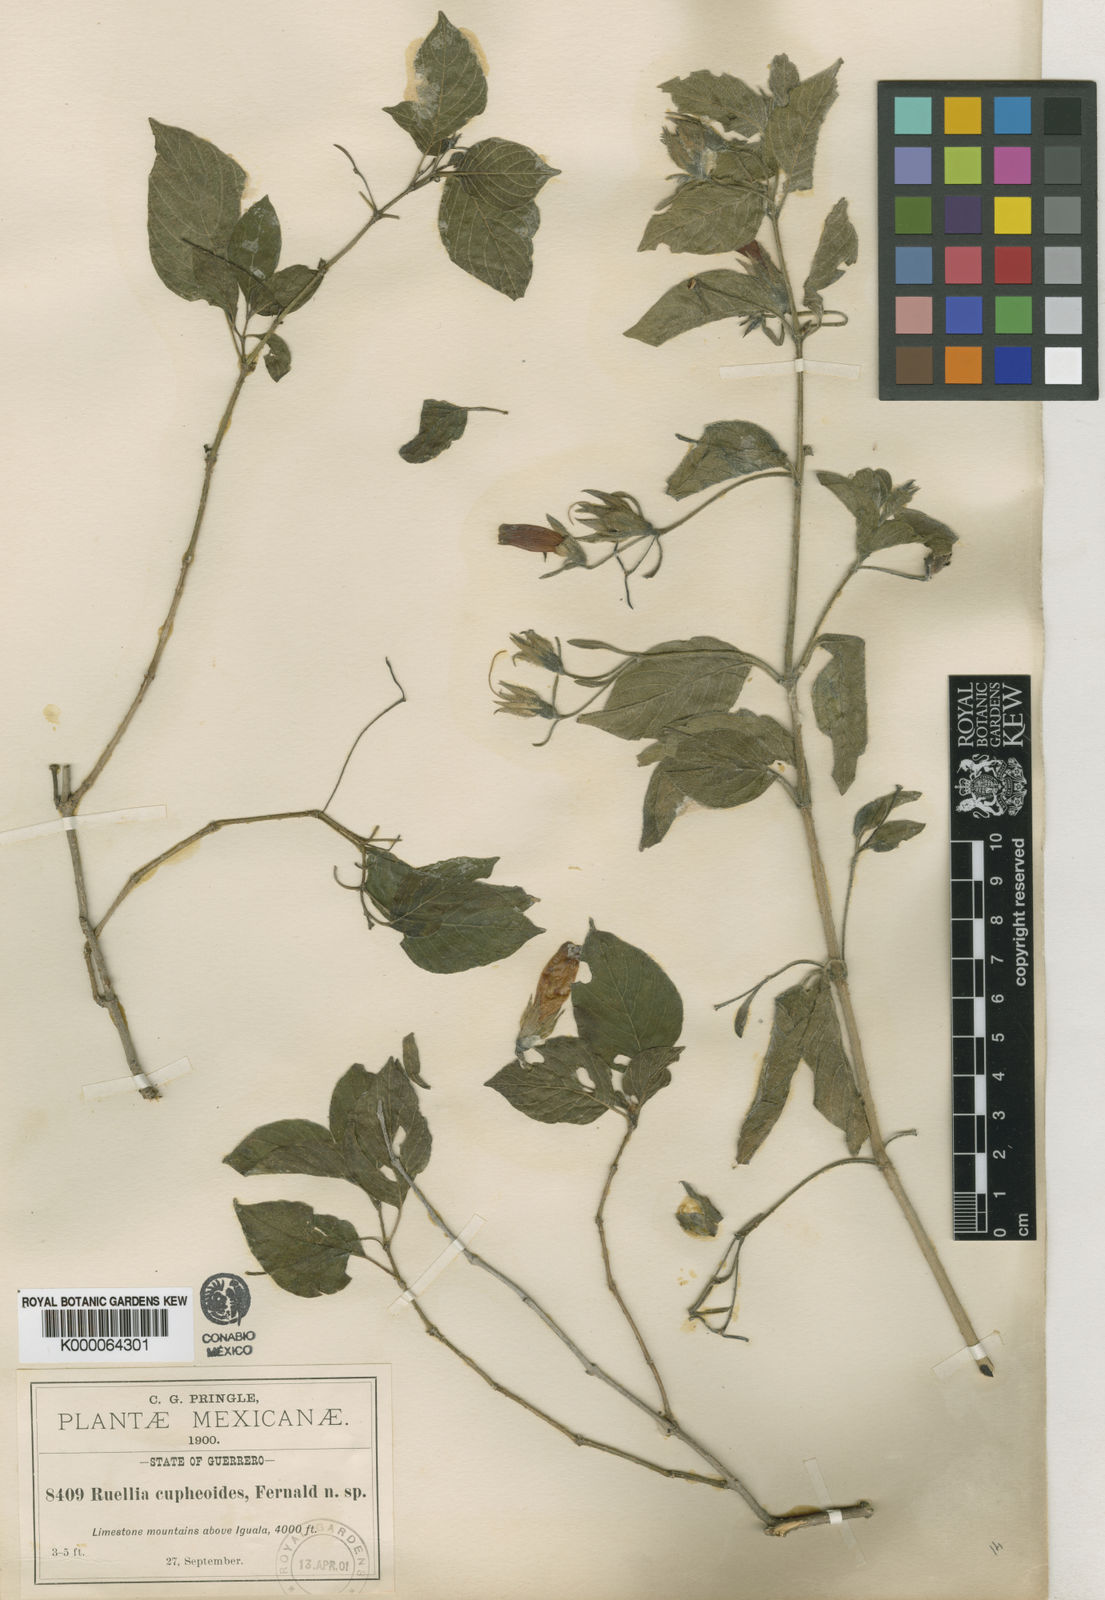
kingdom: Plantae
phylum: Tracheophyta
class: Magnoliopsida
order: Lamiales
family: Acanthaceae
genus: Ruellia
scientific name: Ruellia fruticosa
